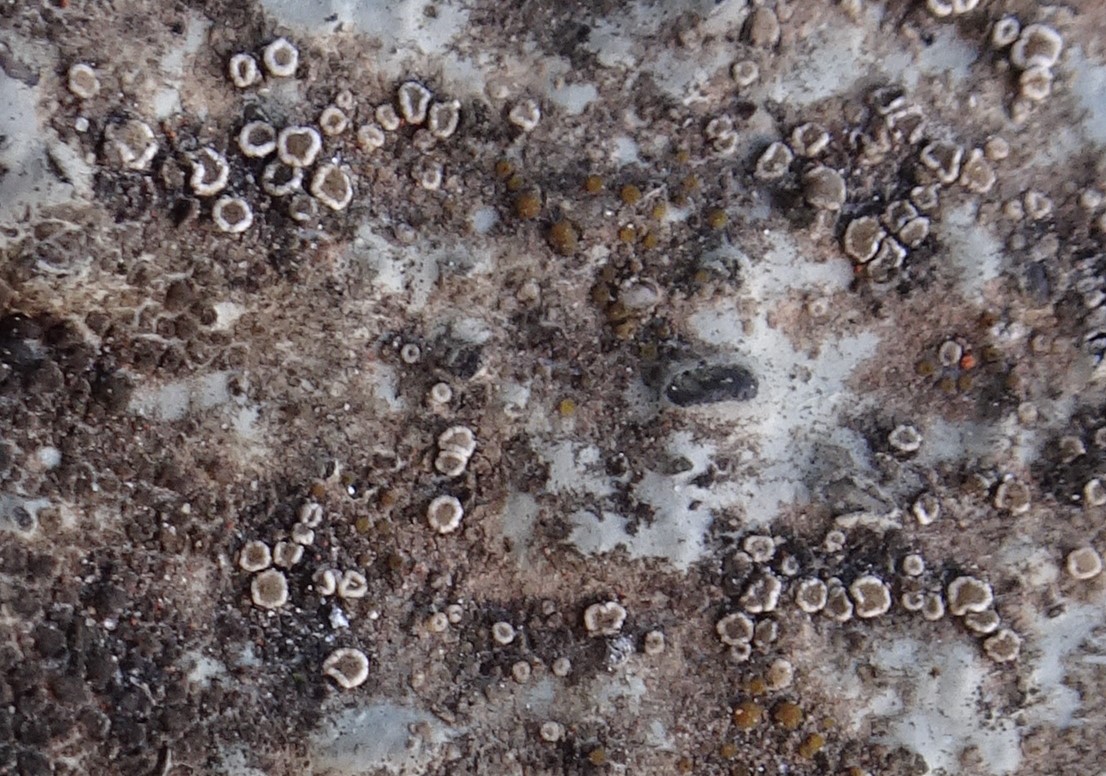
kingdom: Fungi
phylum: Ascomycota
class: Lecanoromycetes
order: Lecanorales
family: Lecanoraceae
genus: Polyozosia
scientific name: Polyozosia dispersa
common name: spredt kantskivelav
